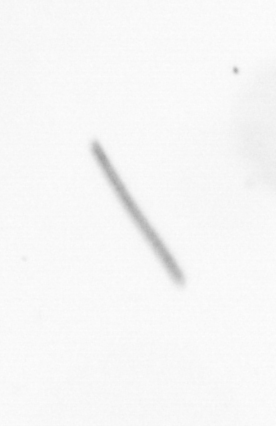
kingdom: Chromista
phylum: Ochrophyta
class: Bacillariophyceae
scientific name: Bacillariophyceae
